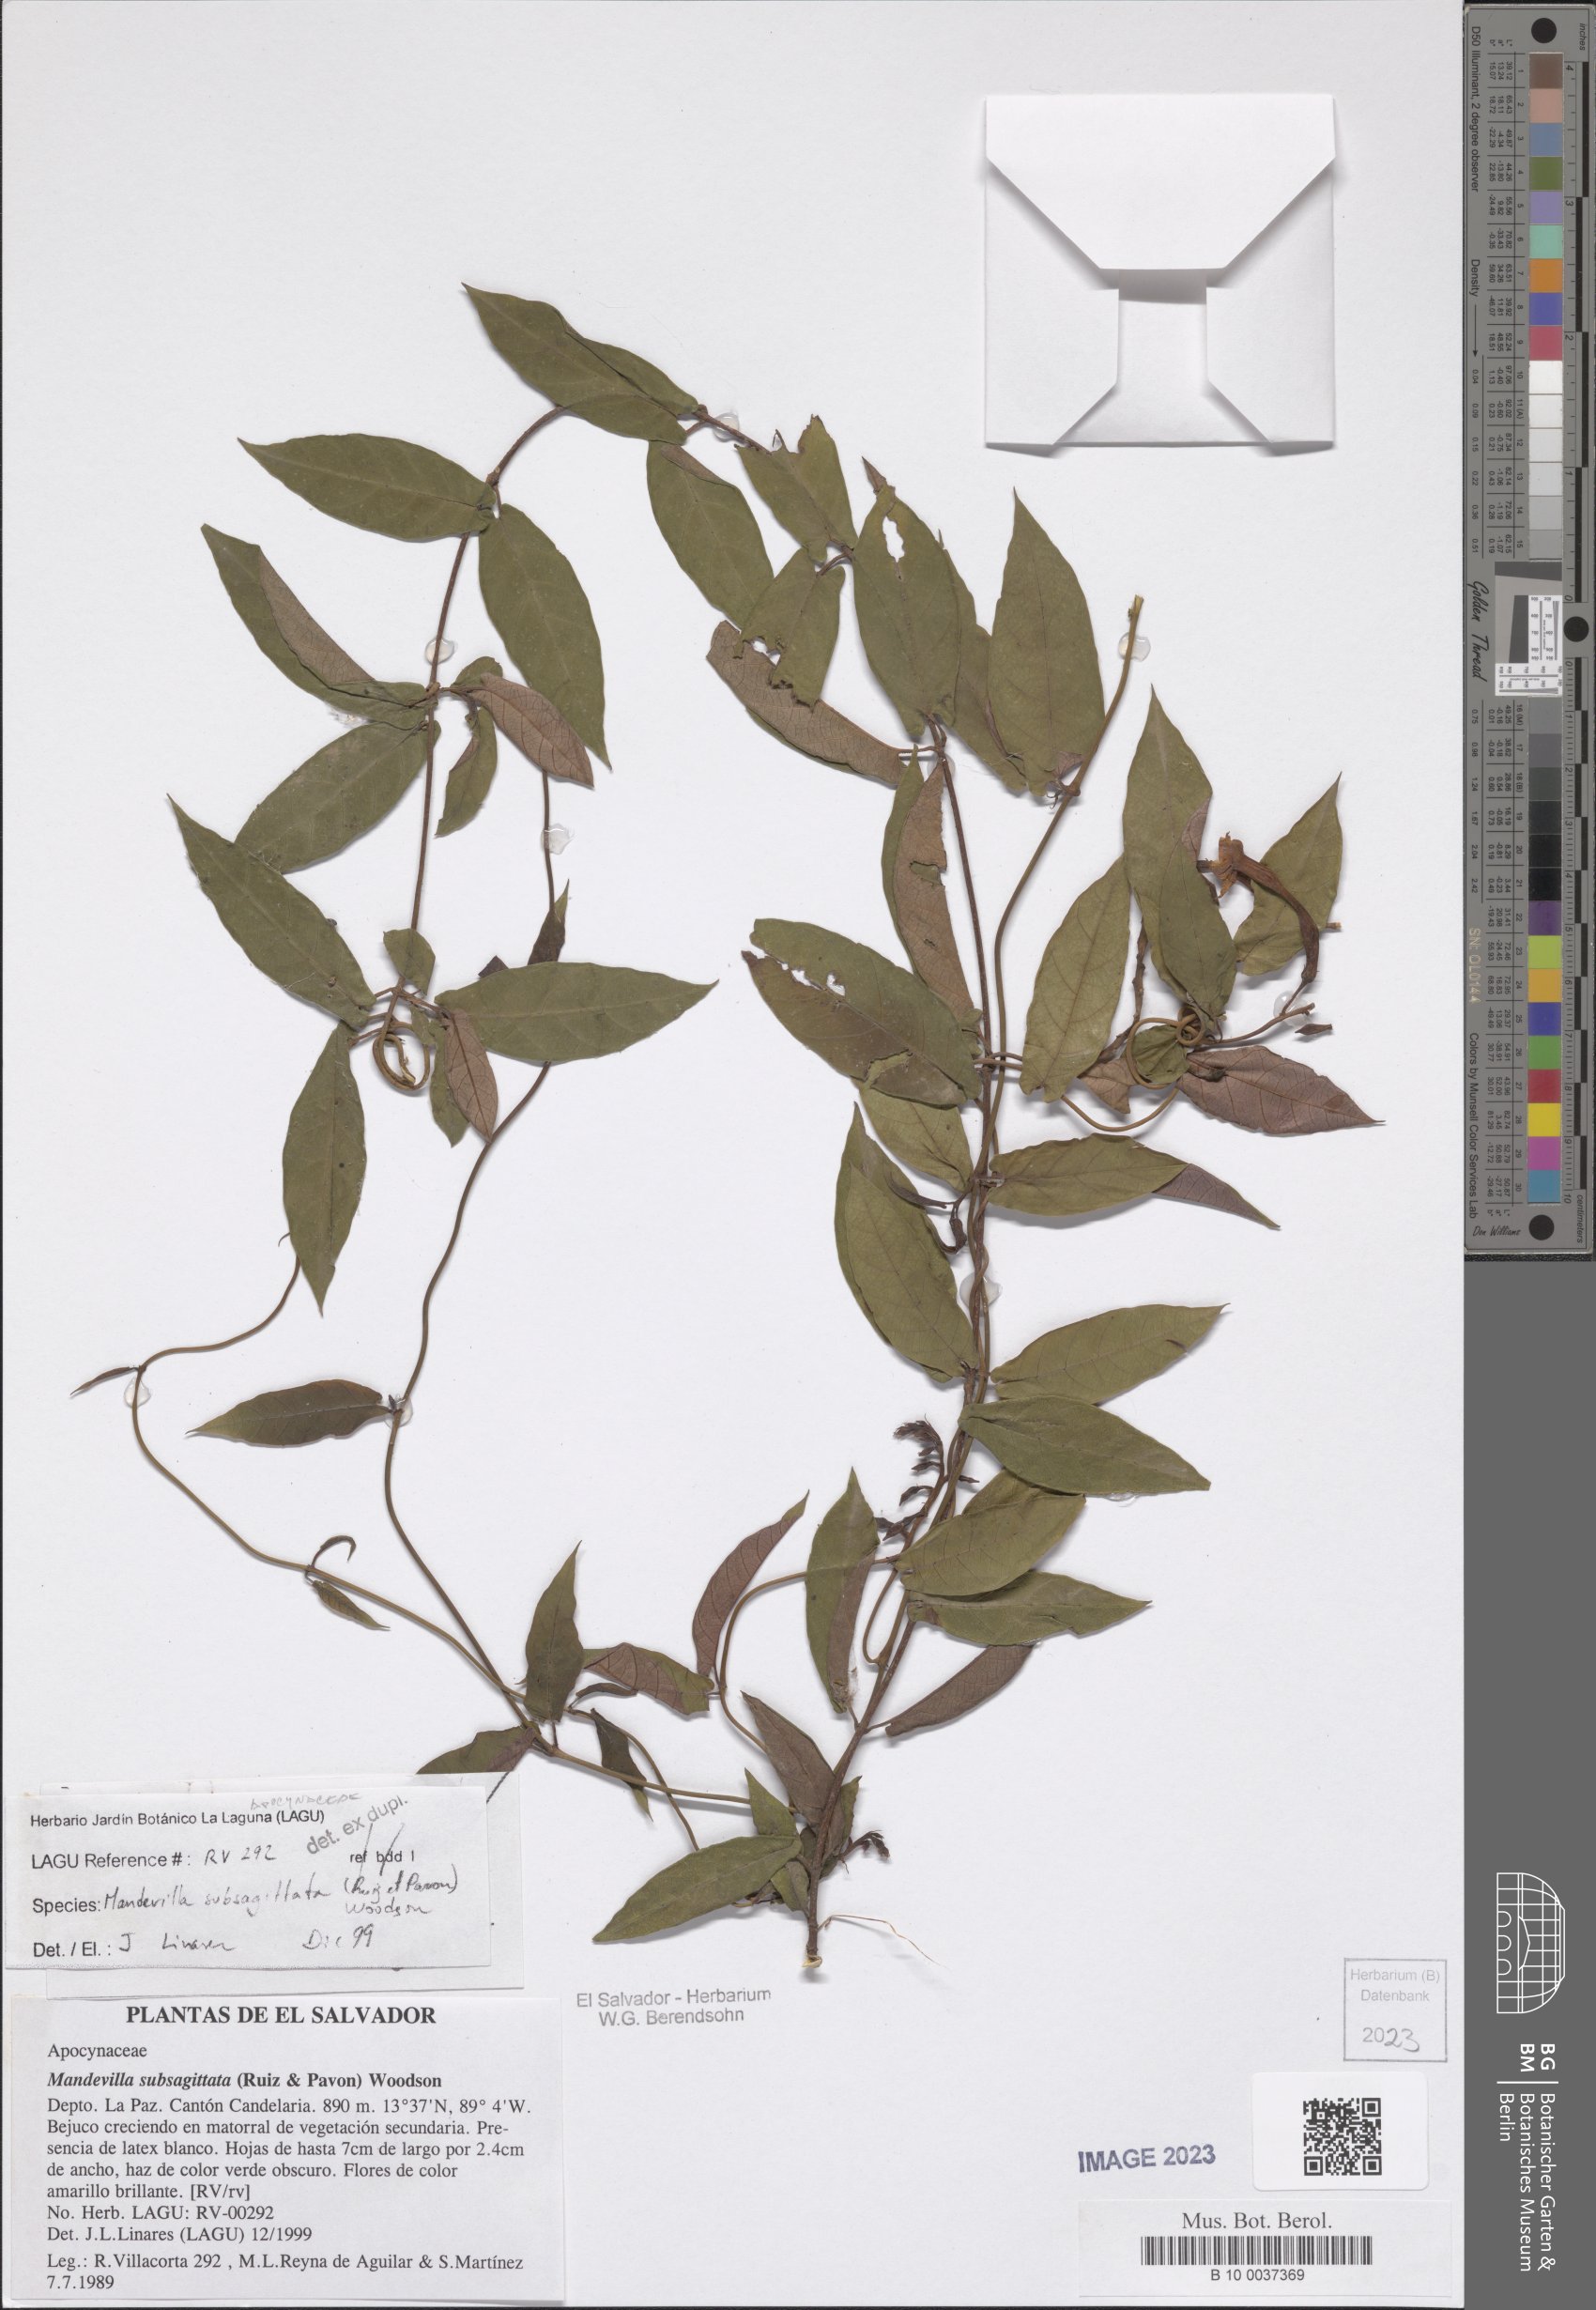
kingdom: Plantae
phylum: Tracheophyta
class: Magnoliopsida
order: Gentianales
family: Apocynaceae
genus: Mandevilla
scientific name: Mandevilla subsagittata
